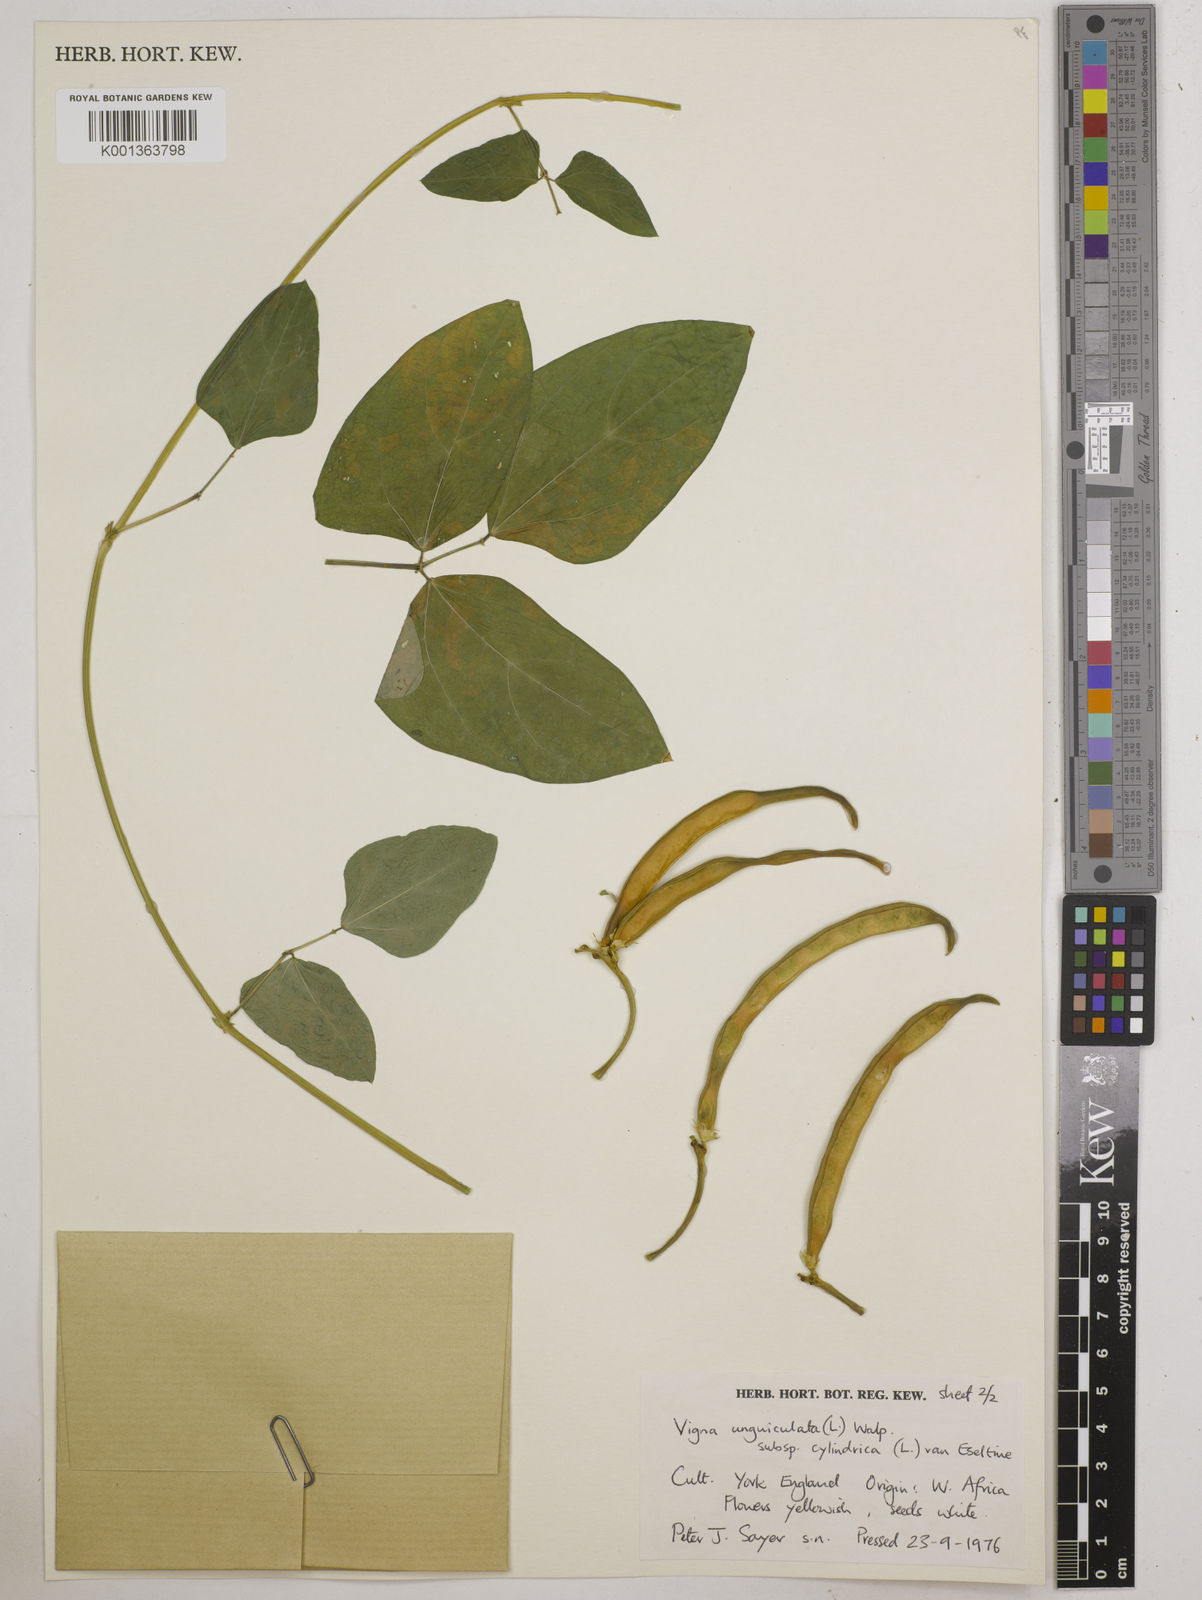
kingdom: Plantae
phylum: Tracheophyta
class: Magnoliopsida
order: Fabales
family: Fabaceae
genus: Vigna
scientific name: Vigna
